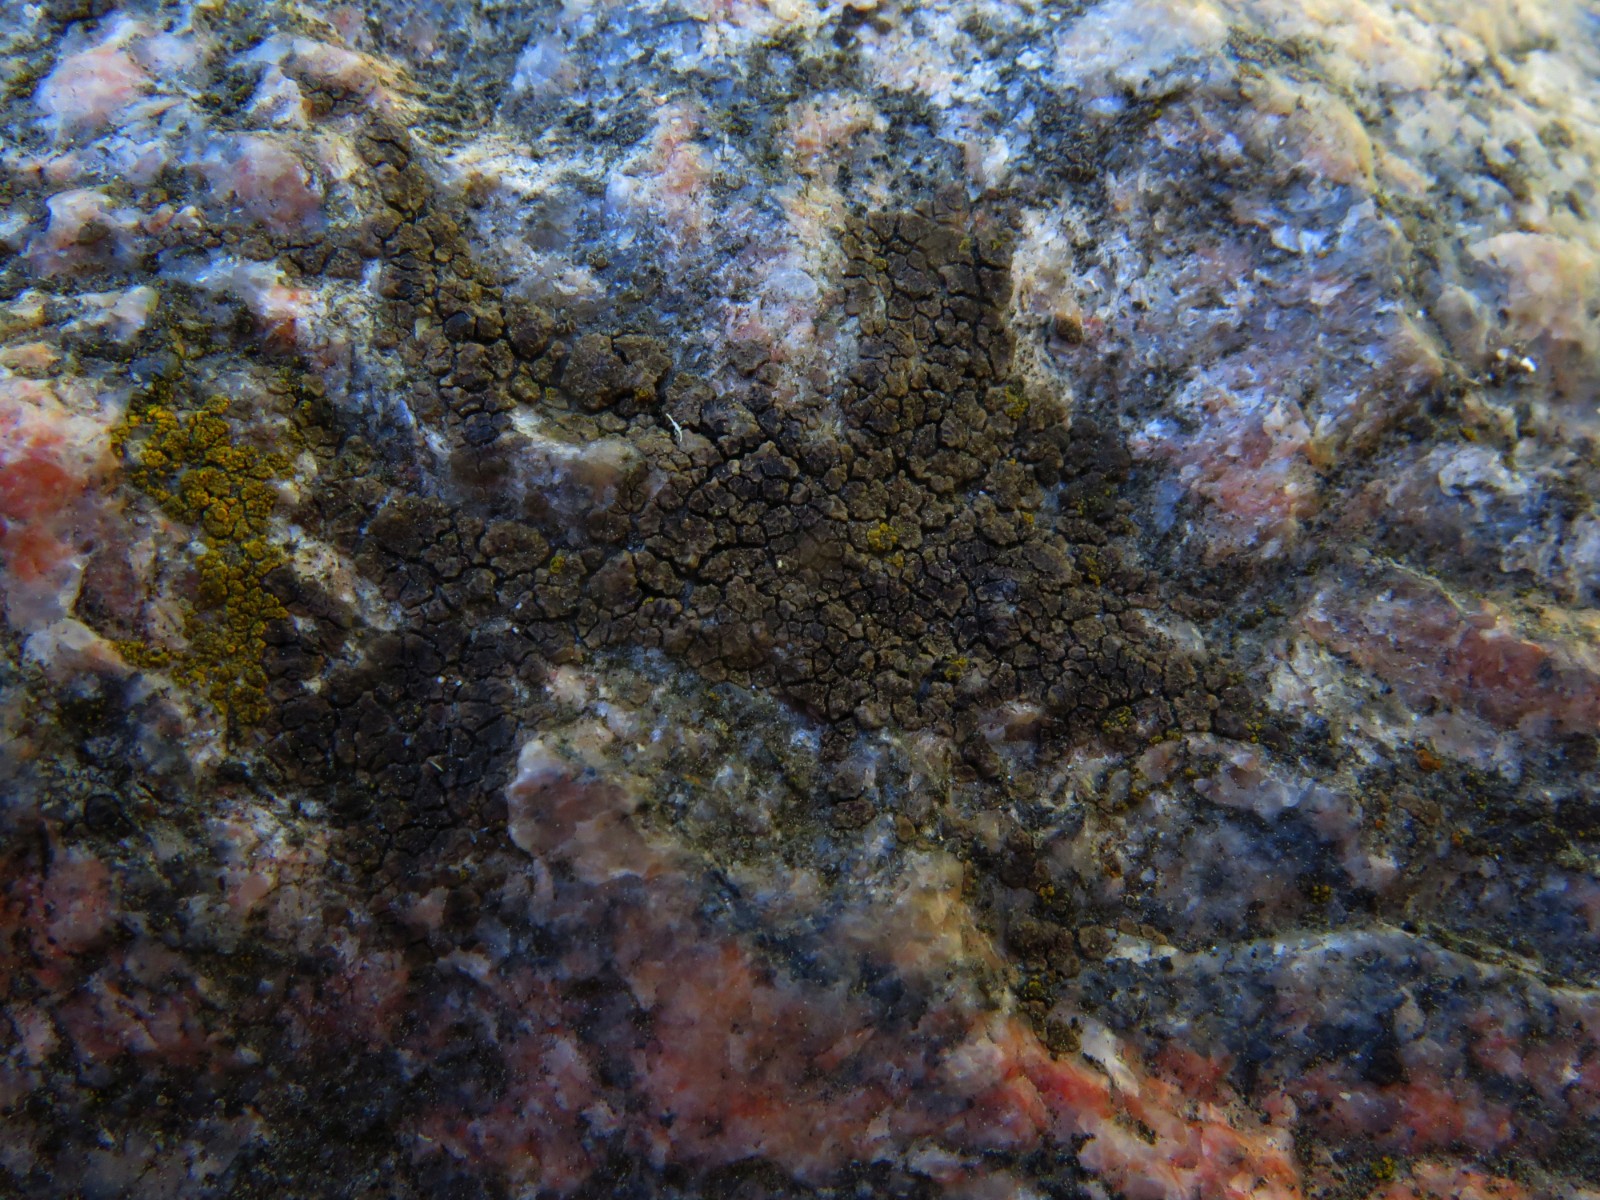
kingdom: Fungi
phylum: Ascomycota
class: Lecanoromycetes
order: Acarosporales
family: Acarosporaceae
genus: Acarospora
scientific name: Acarospora fuscata
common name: brun småsporelav
